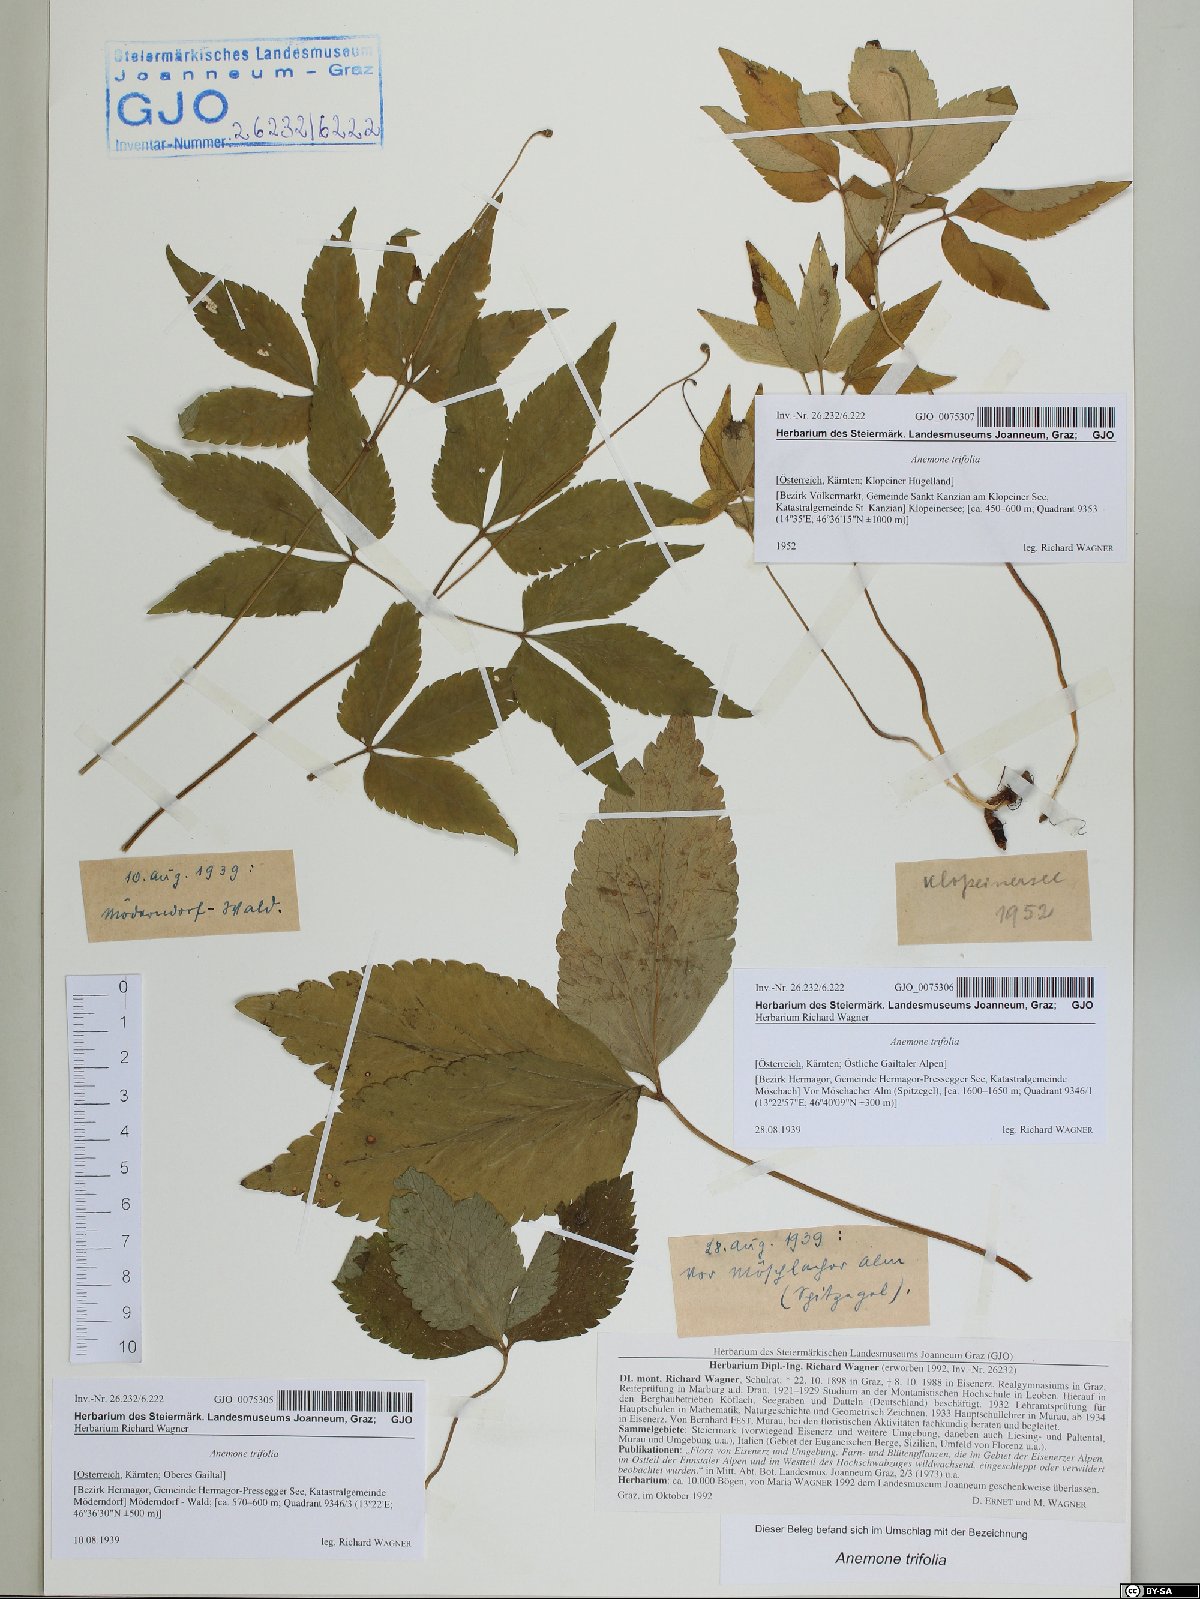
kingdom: Plantae
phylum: Tracheophyta
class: Magnoliopsida
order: Ranunculales
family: Ranunculaceae
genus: Anemone
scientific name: Anemone trifolia
